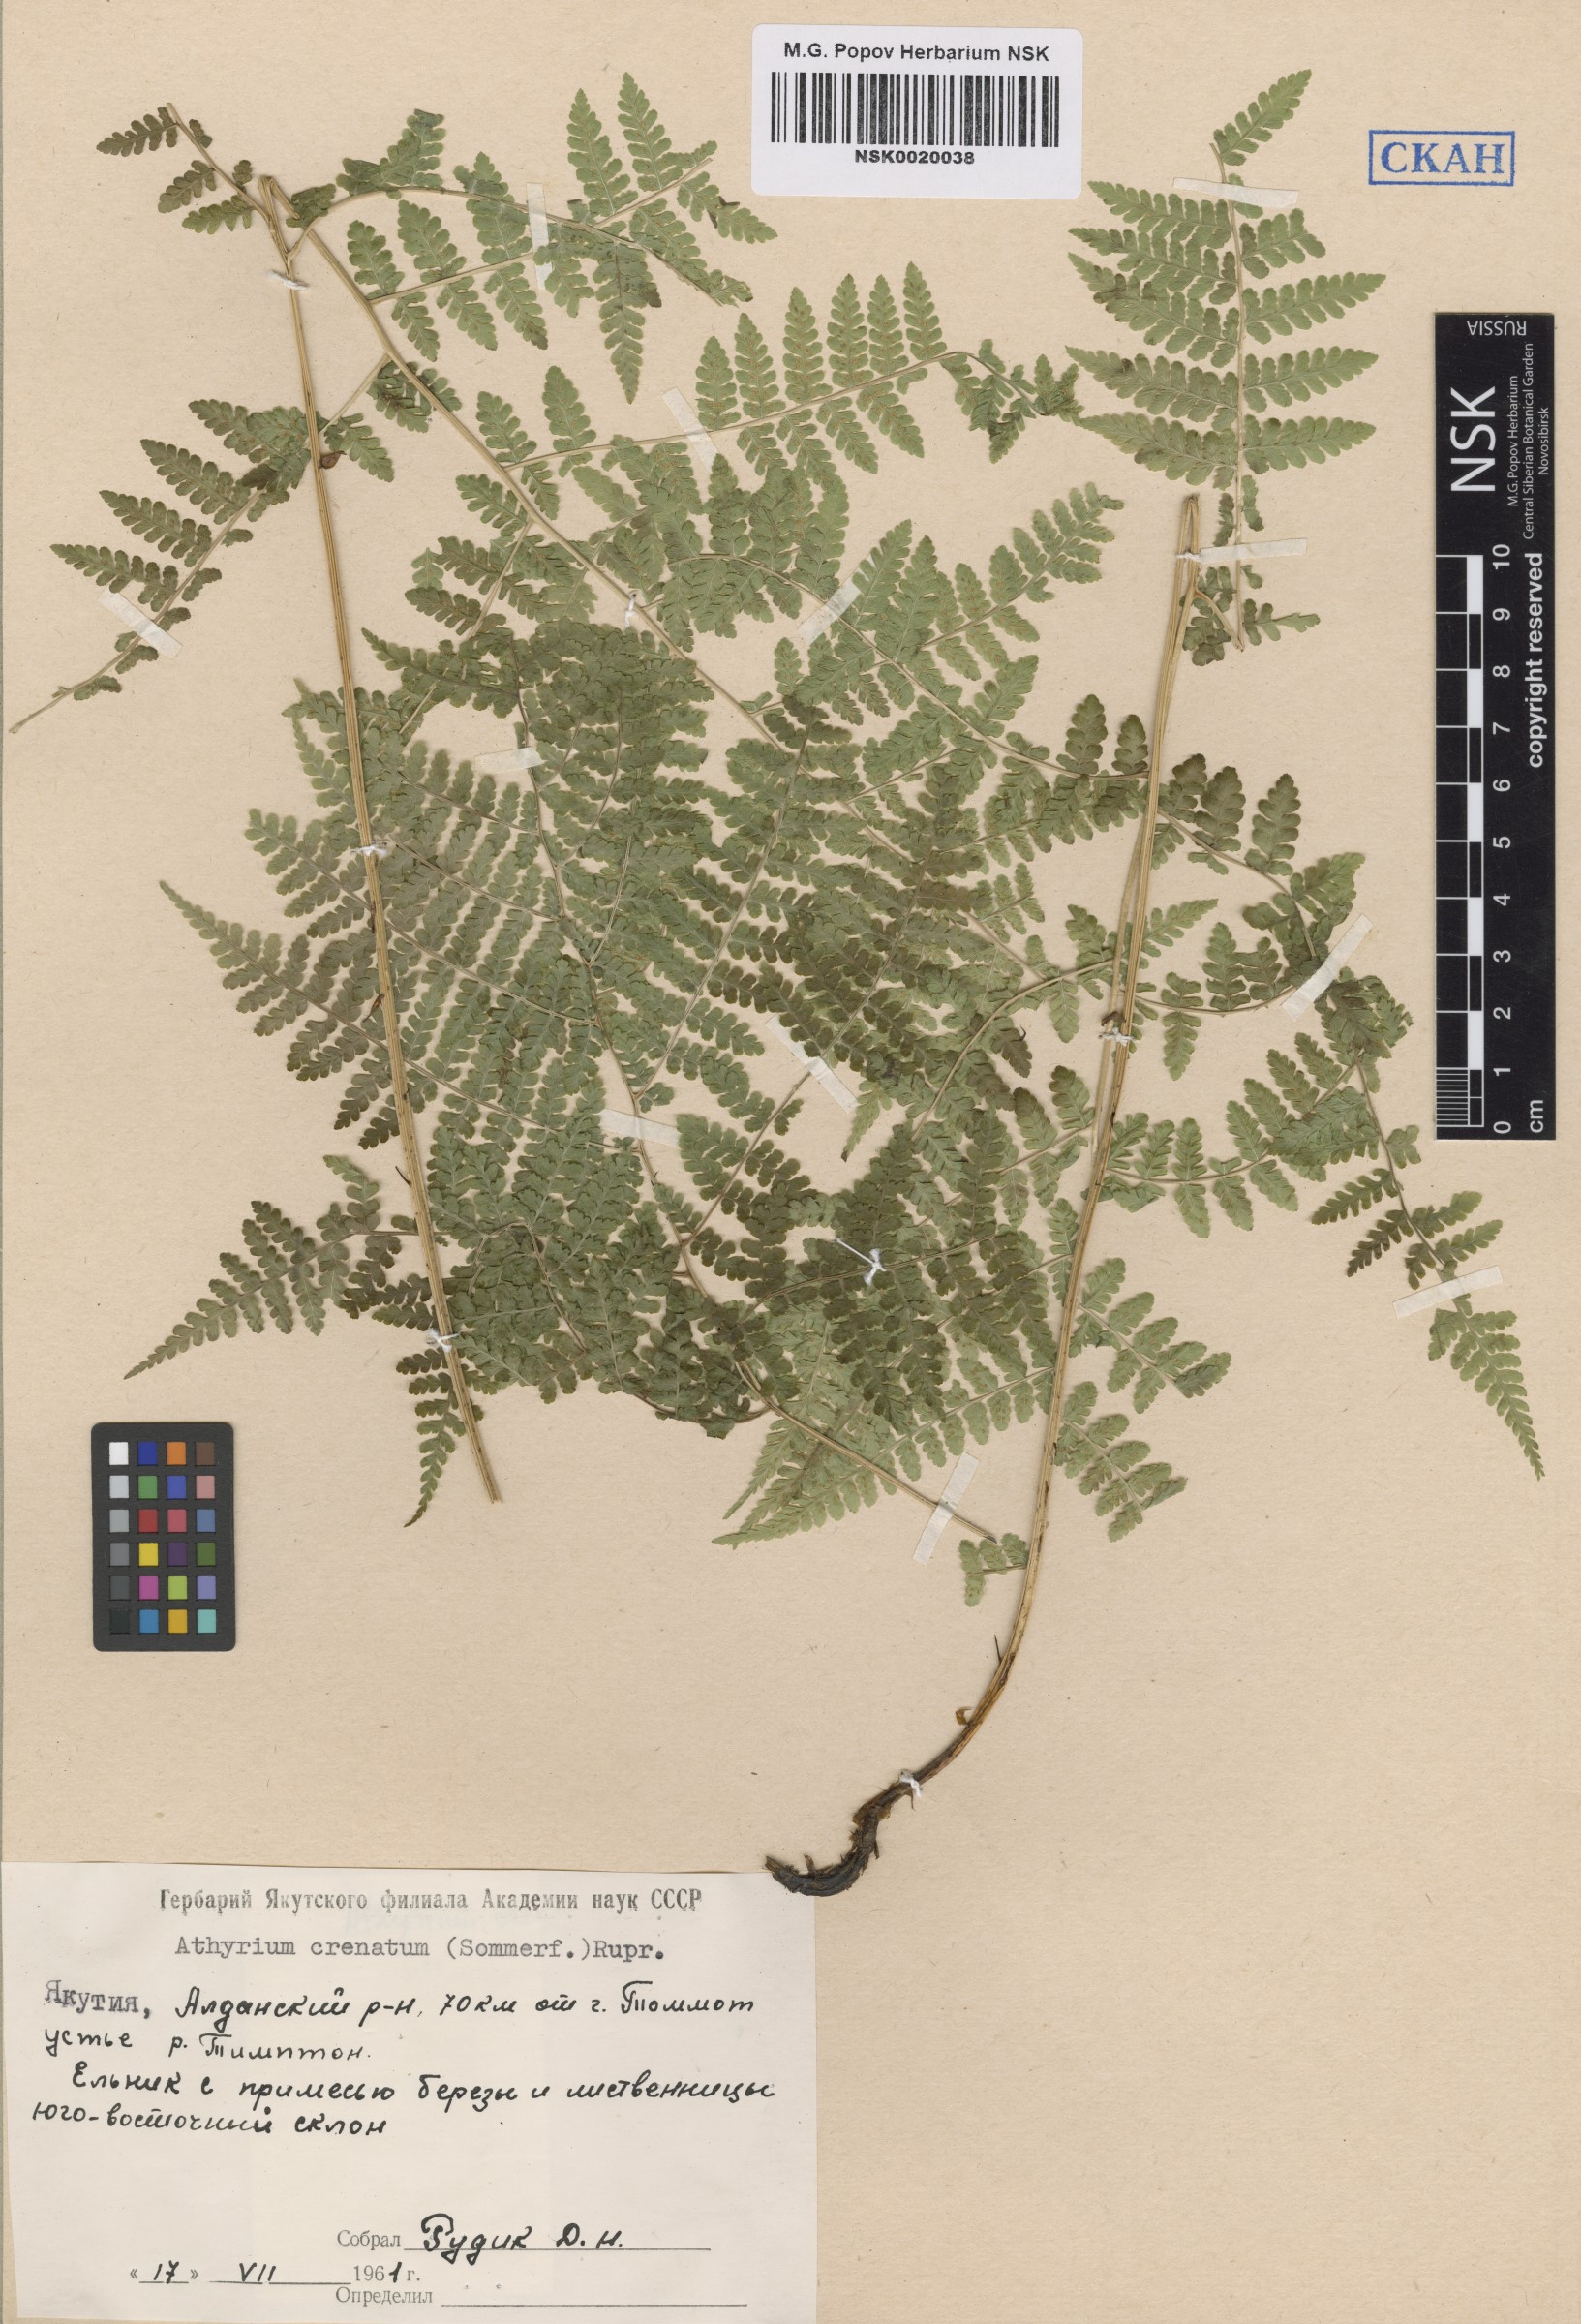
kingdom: Plantae
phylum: Tracheophyta
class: Polypodiopsida
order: Polypodiales
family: Athyriaceae
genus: Diplazium
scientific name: Diplazium sibiricum
